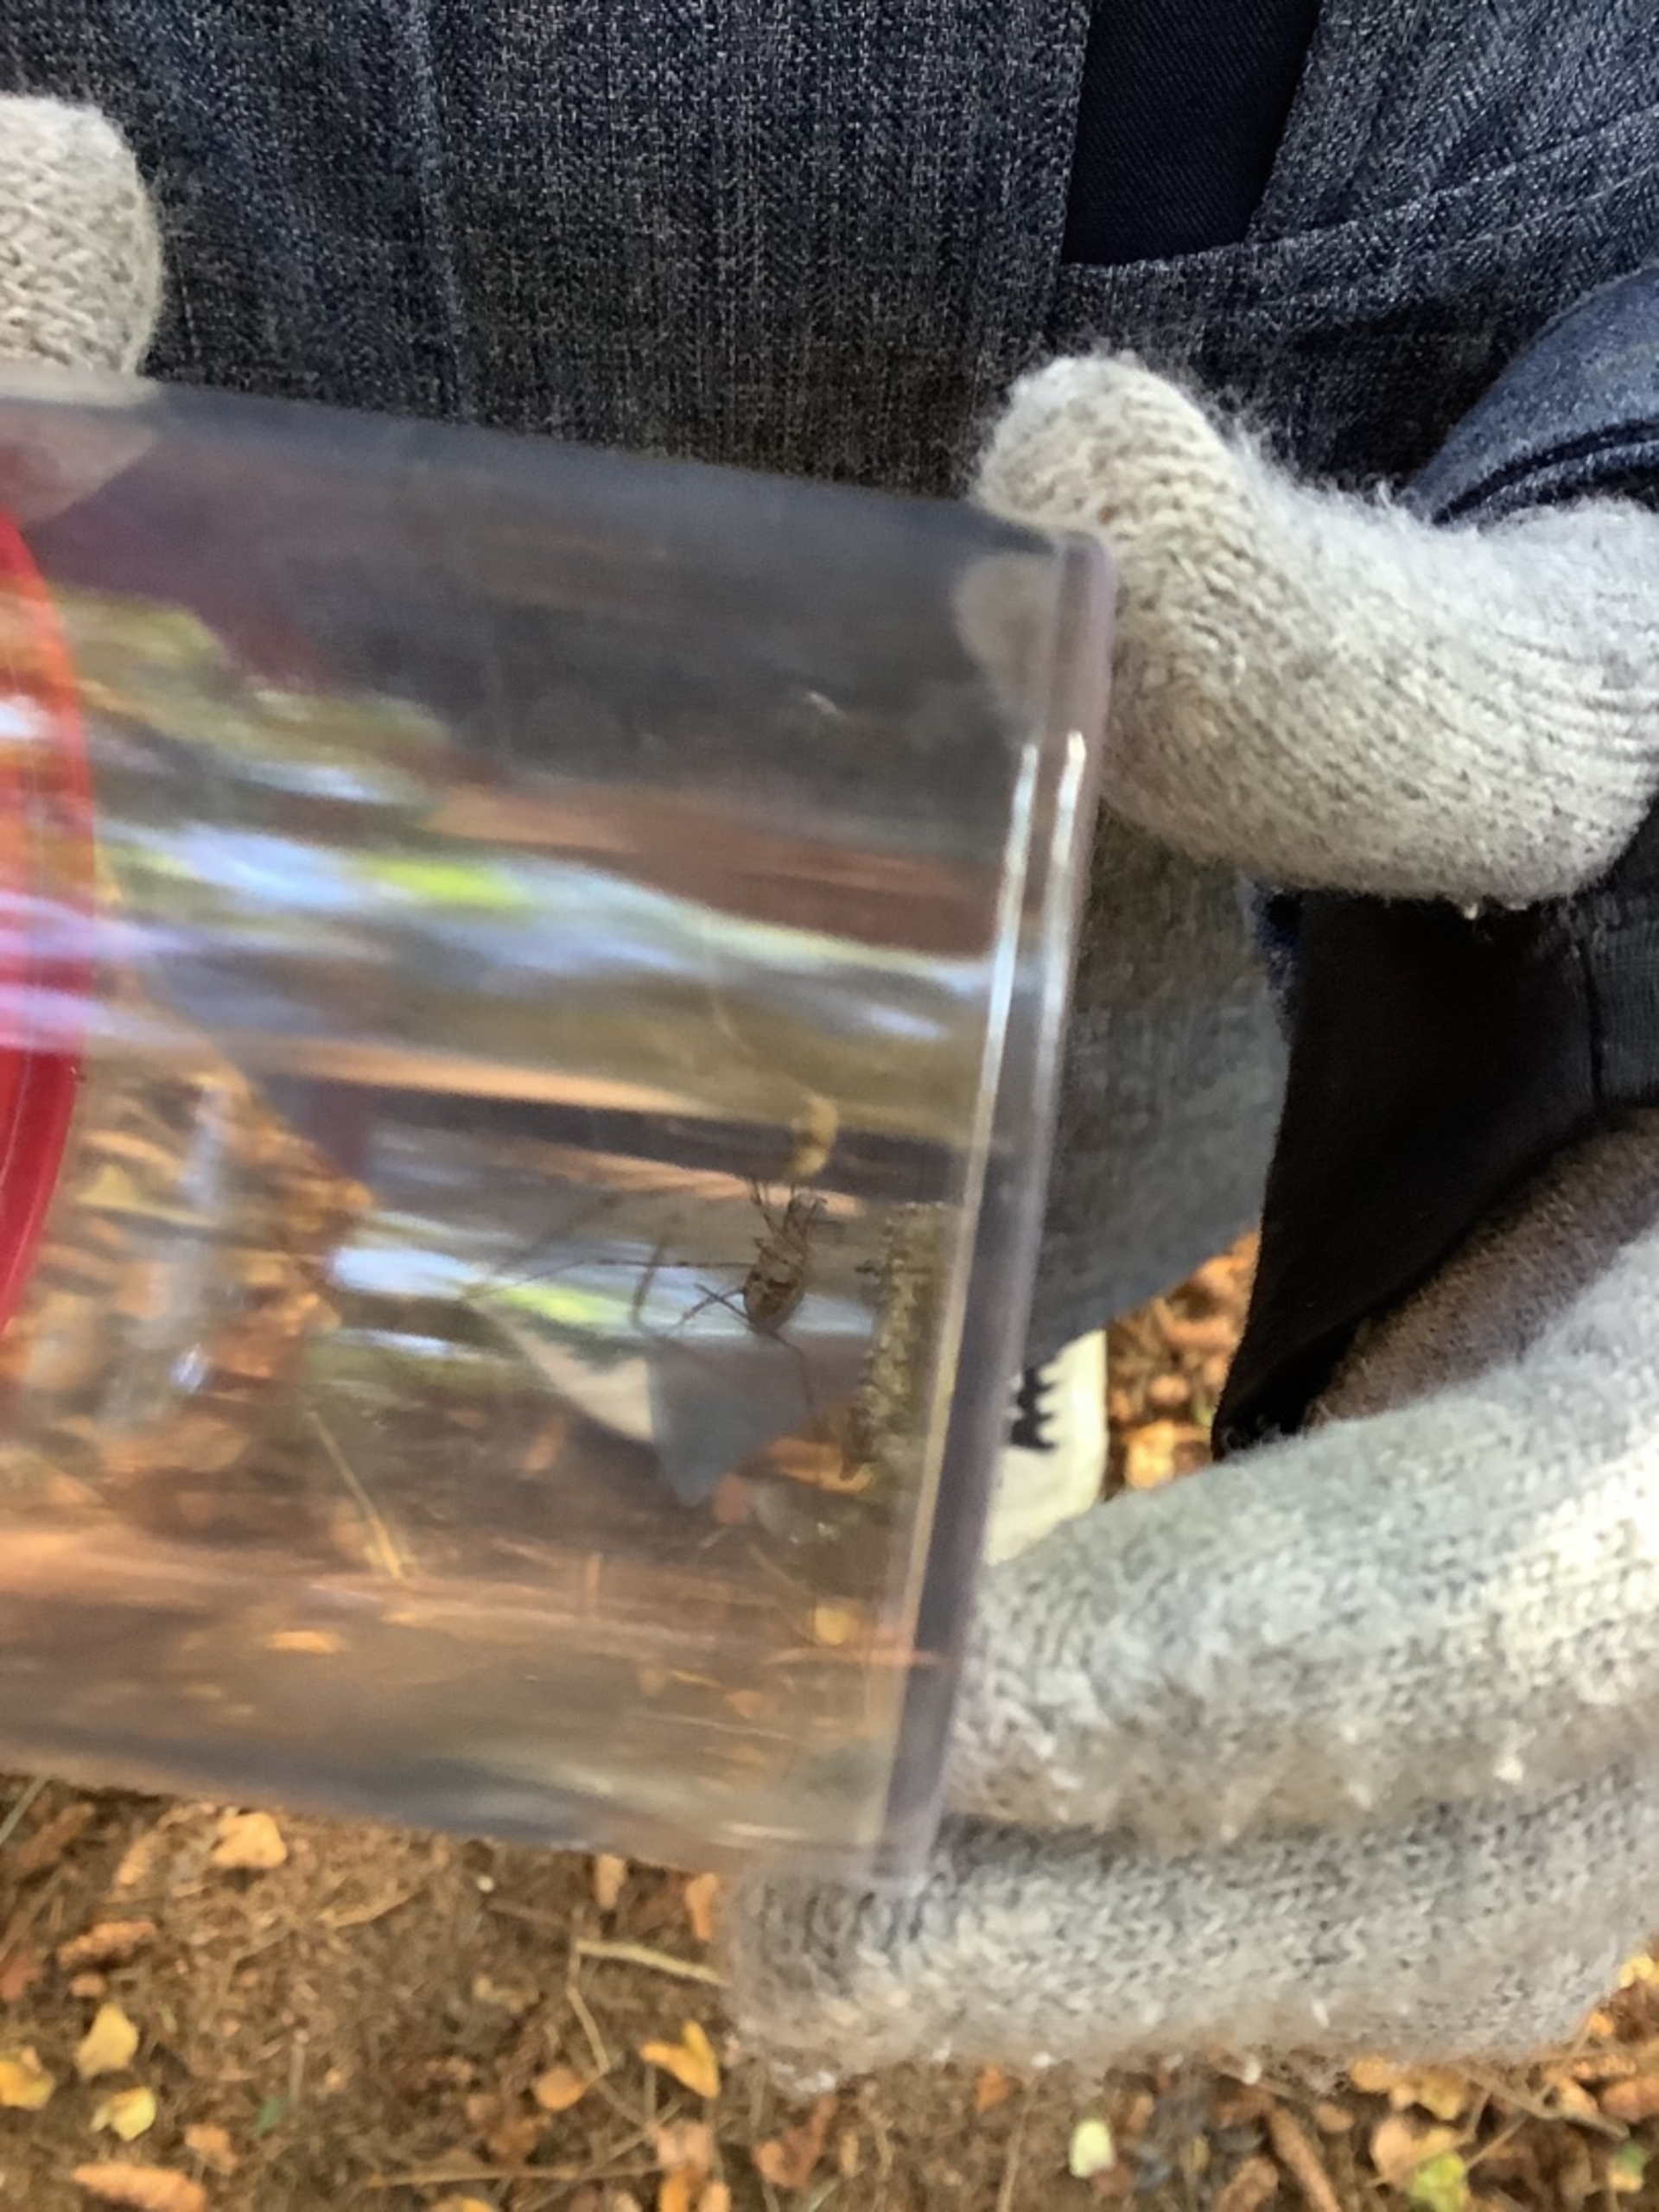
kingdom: Animalia
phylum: Arthropoda
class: Arachnida
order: Opiliones
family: Phalangiidae
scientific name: Phalangiidae
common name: Stormejere
